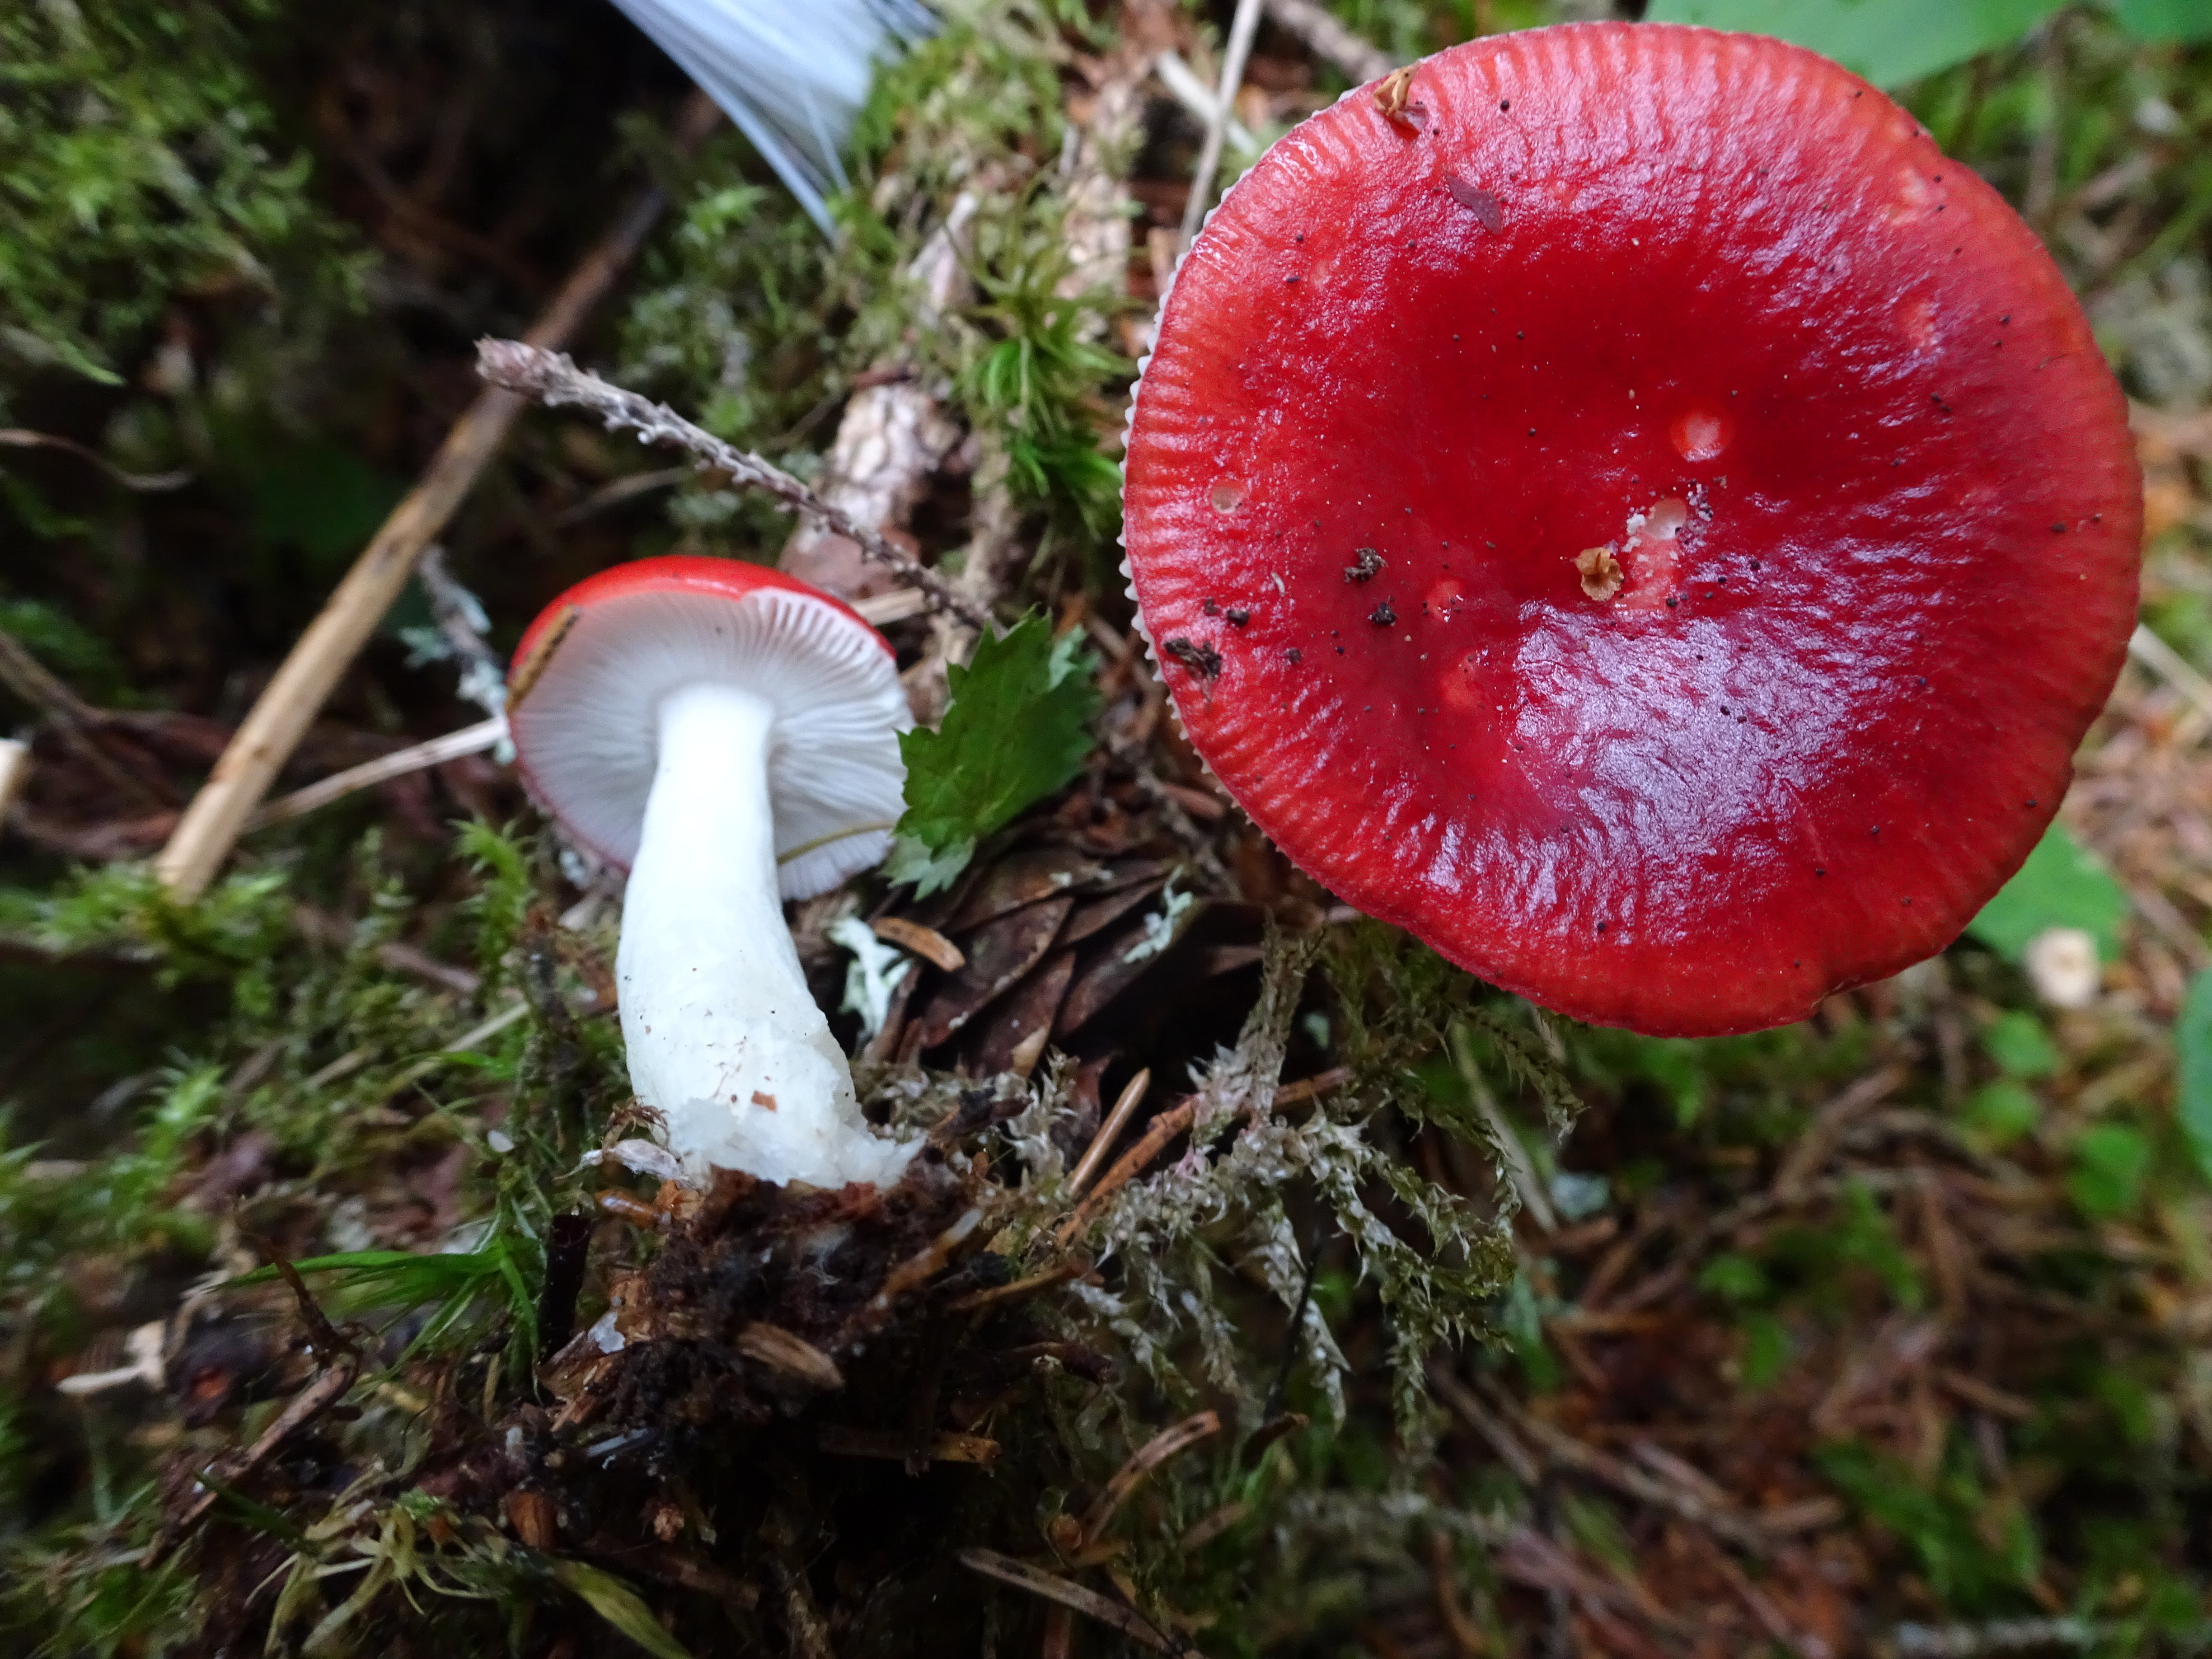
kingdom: Fungi
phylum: Basidiomycota
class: Agaricomycetes
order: Russulales
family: Russulaceae
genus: Russula
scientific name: Russula grisescens
